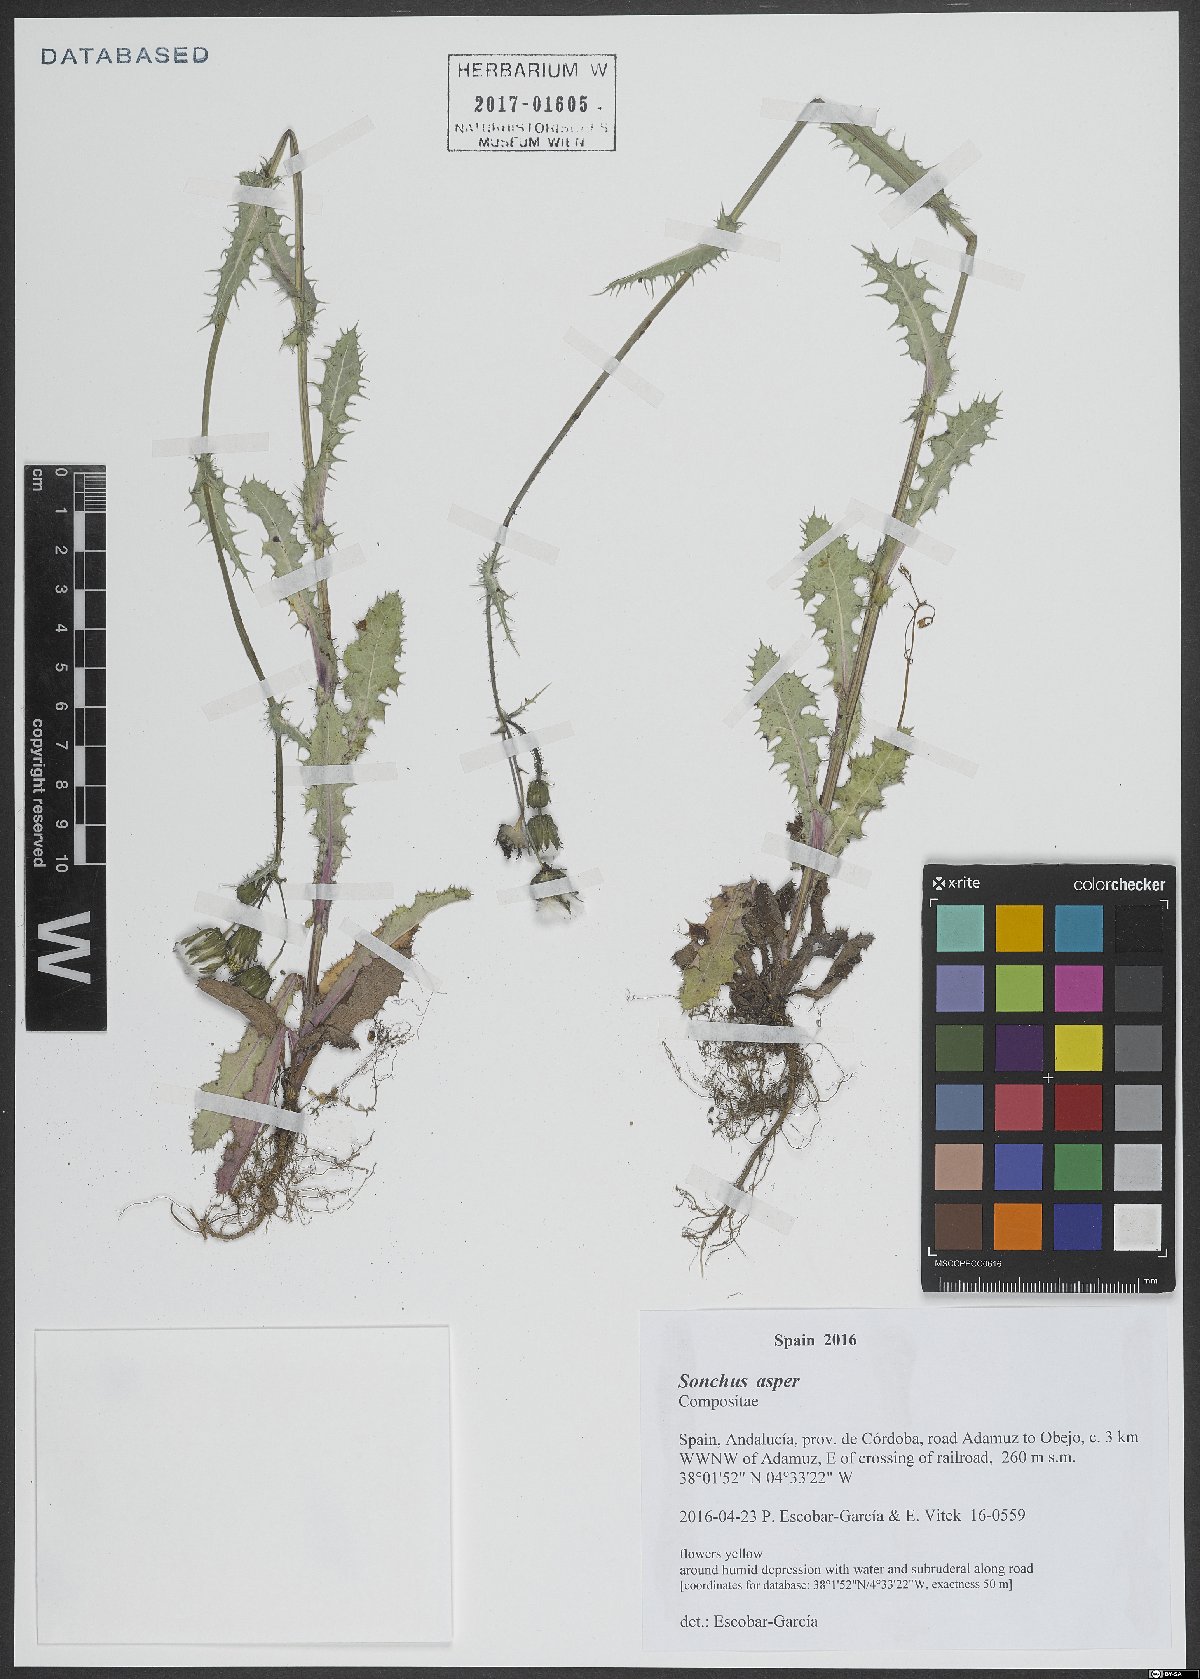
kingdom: Plantae
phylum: Tracheophyta
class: Magnoliopsida
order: Asterales
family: Asteraceae
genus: Sonchus
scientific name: Sonchus asper
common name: Prickly sow-thistle
